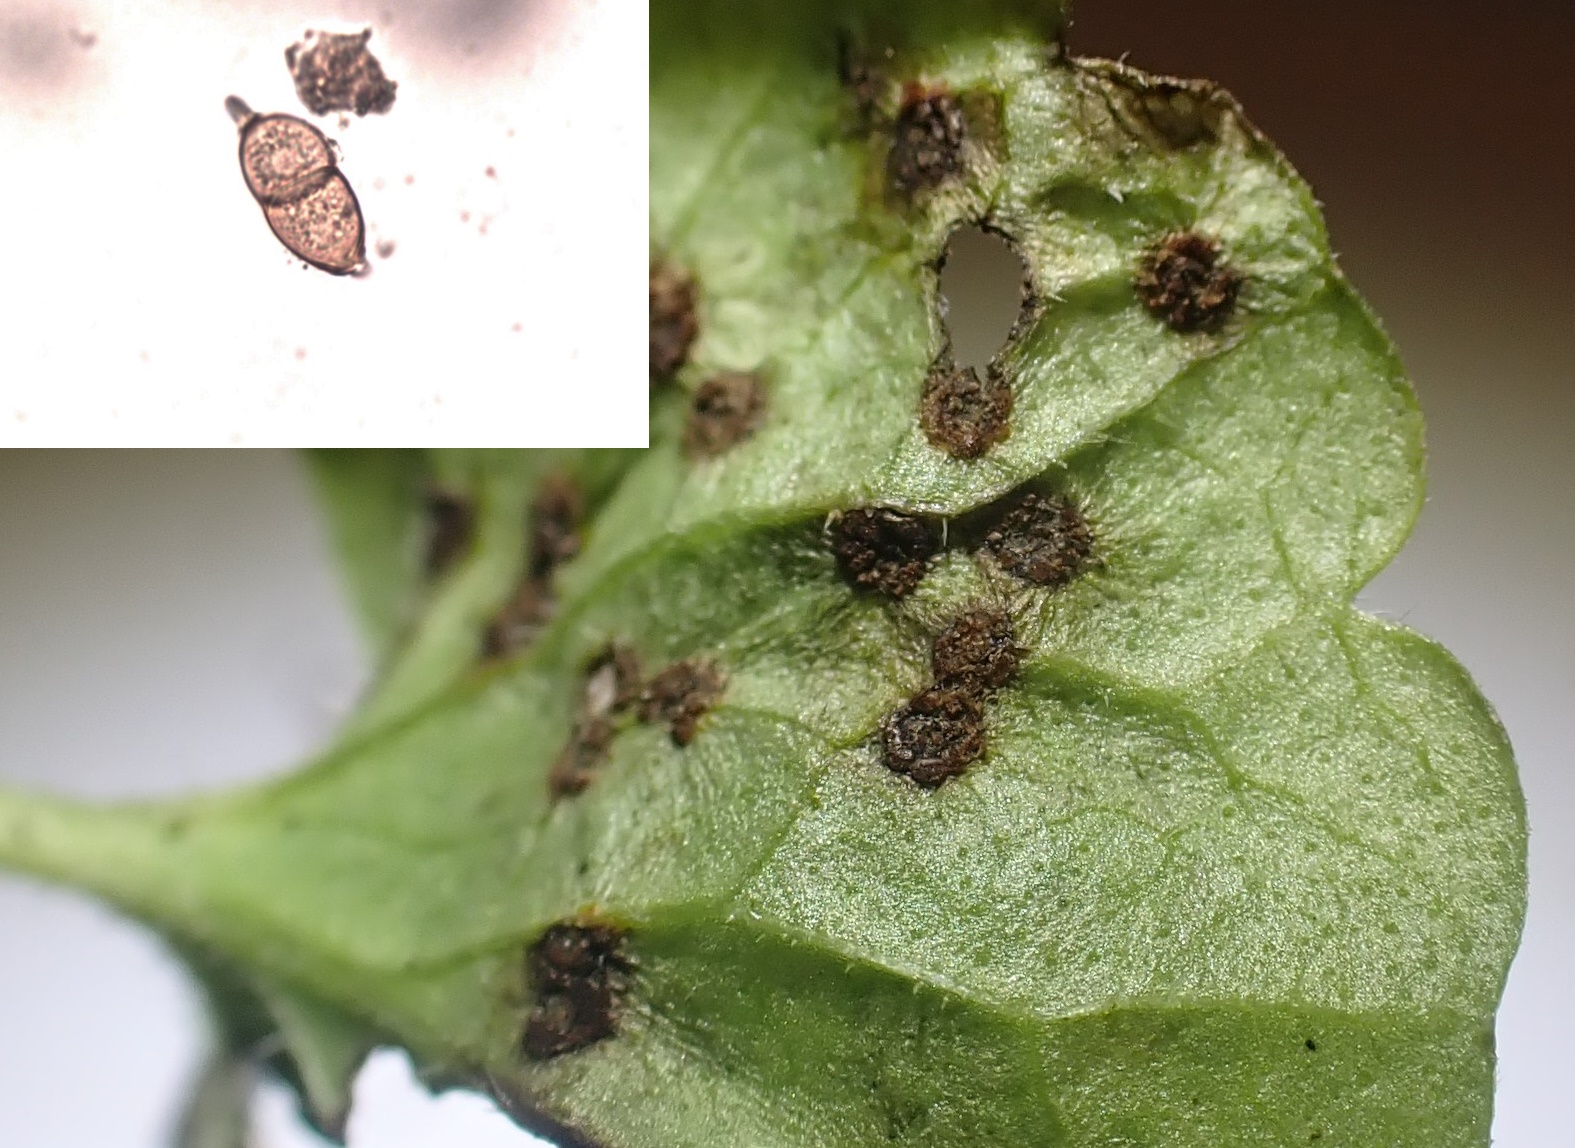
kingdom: Fungi
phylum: Basidiomycota
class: Pucciniomycetes
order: Pucciniales
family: Pucciniaceae
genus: Puccinia
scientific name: Puccinia glechomatis
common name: Ground ivy rust
